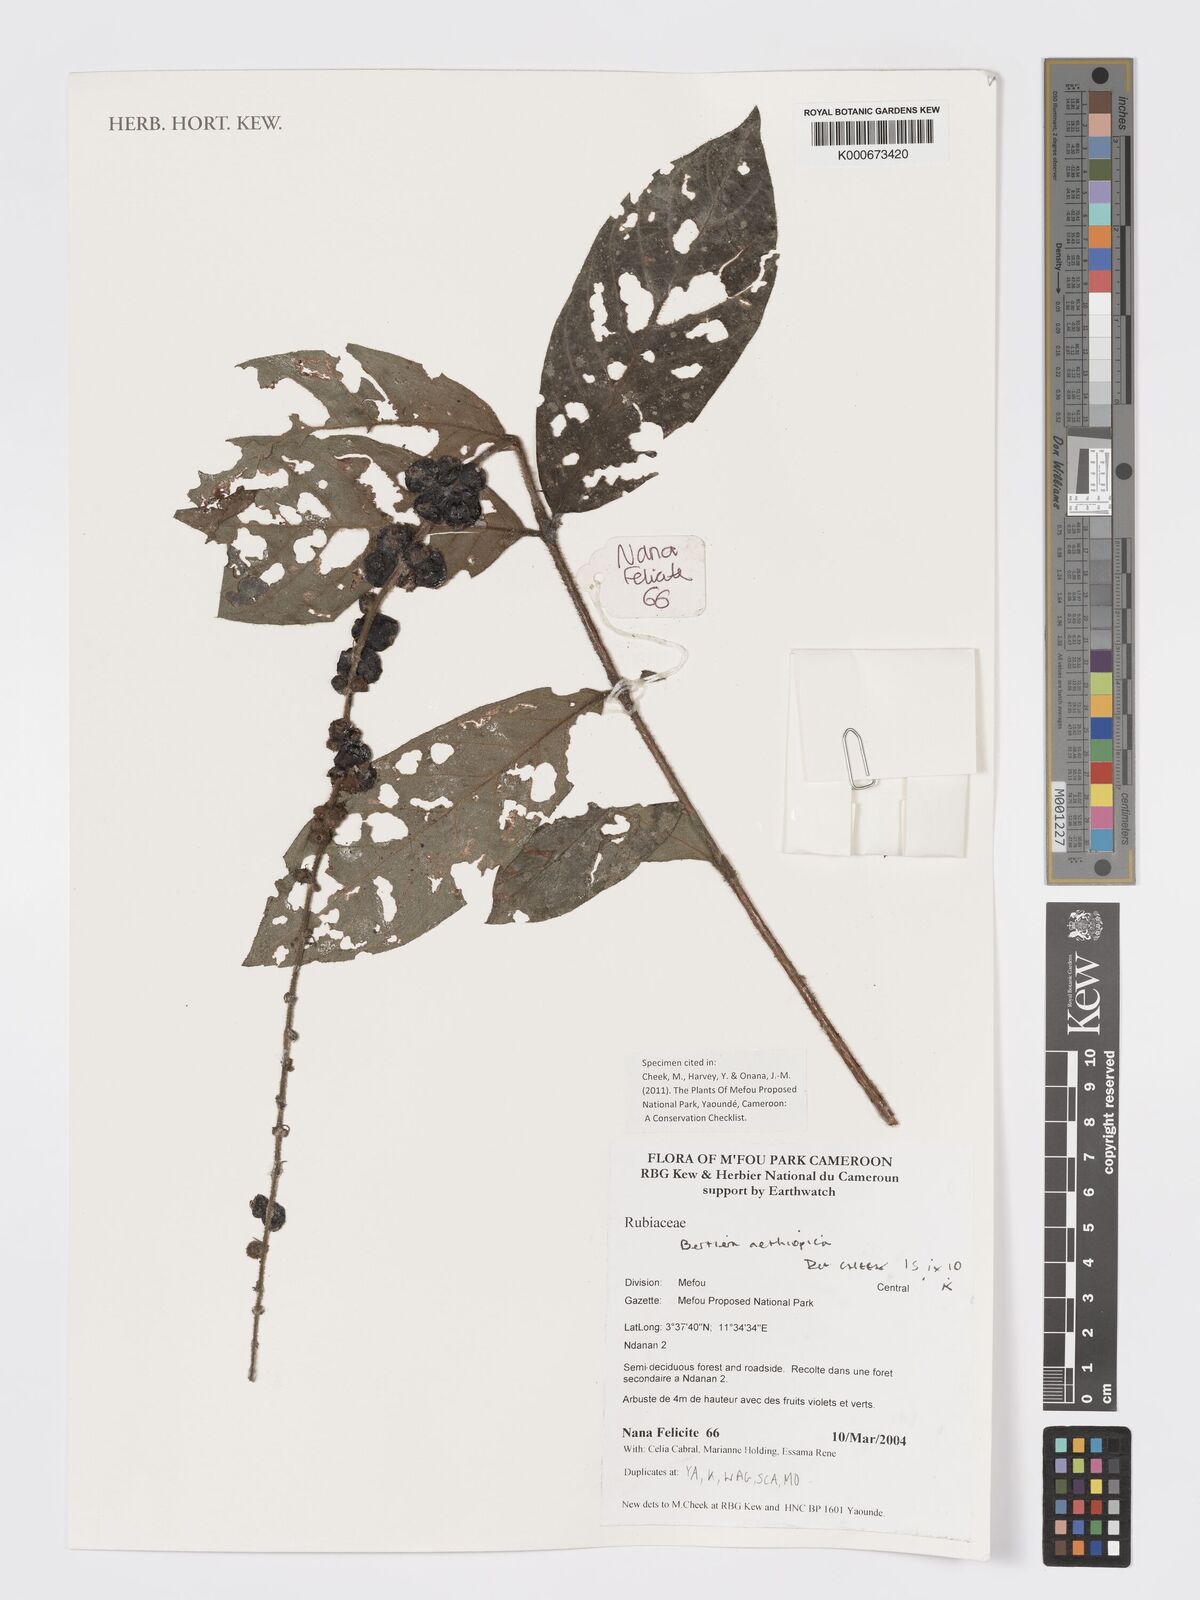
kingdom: Plantae
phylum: Tracheophyta
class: Magnoliopsida
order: Gentianales
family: Rubiaceae
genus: Bertiera
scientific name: Bertiera aethiopica
